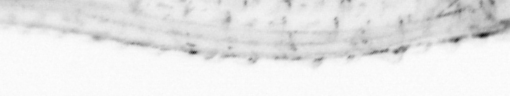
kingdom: Animalia
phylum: Chaetognatha
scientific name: Chaetognatha
